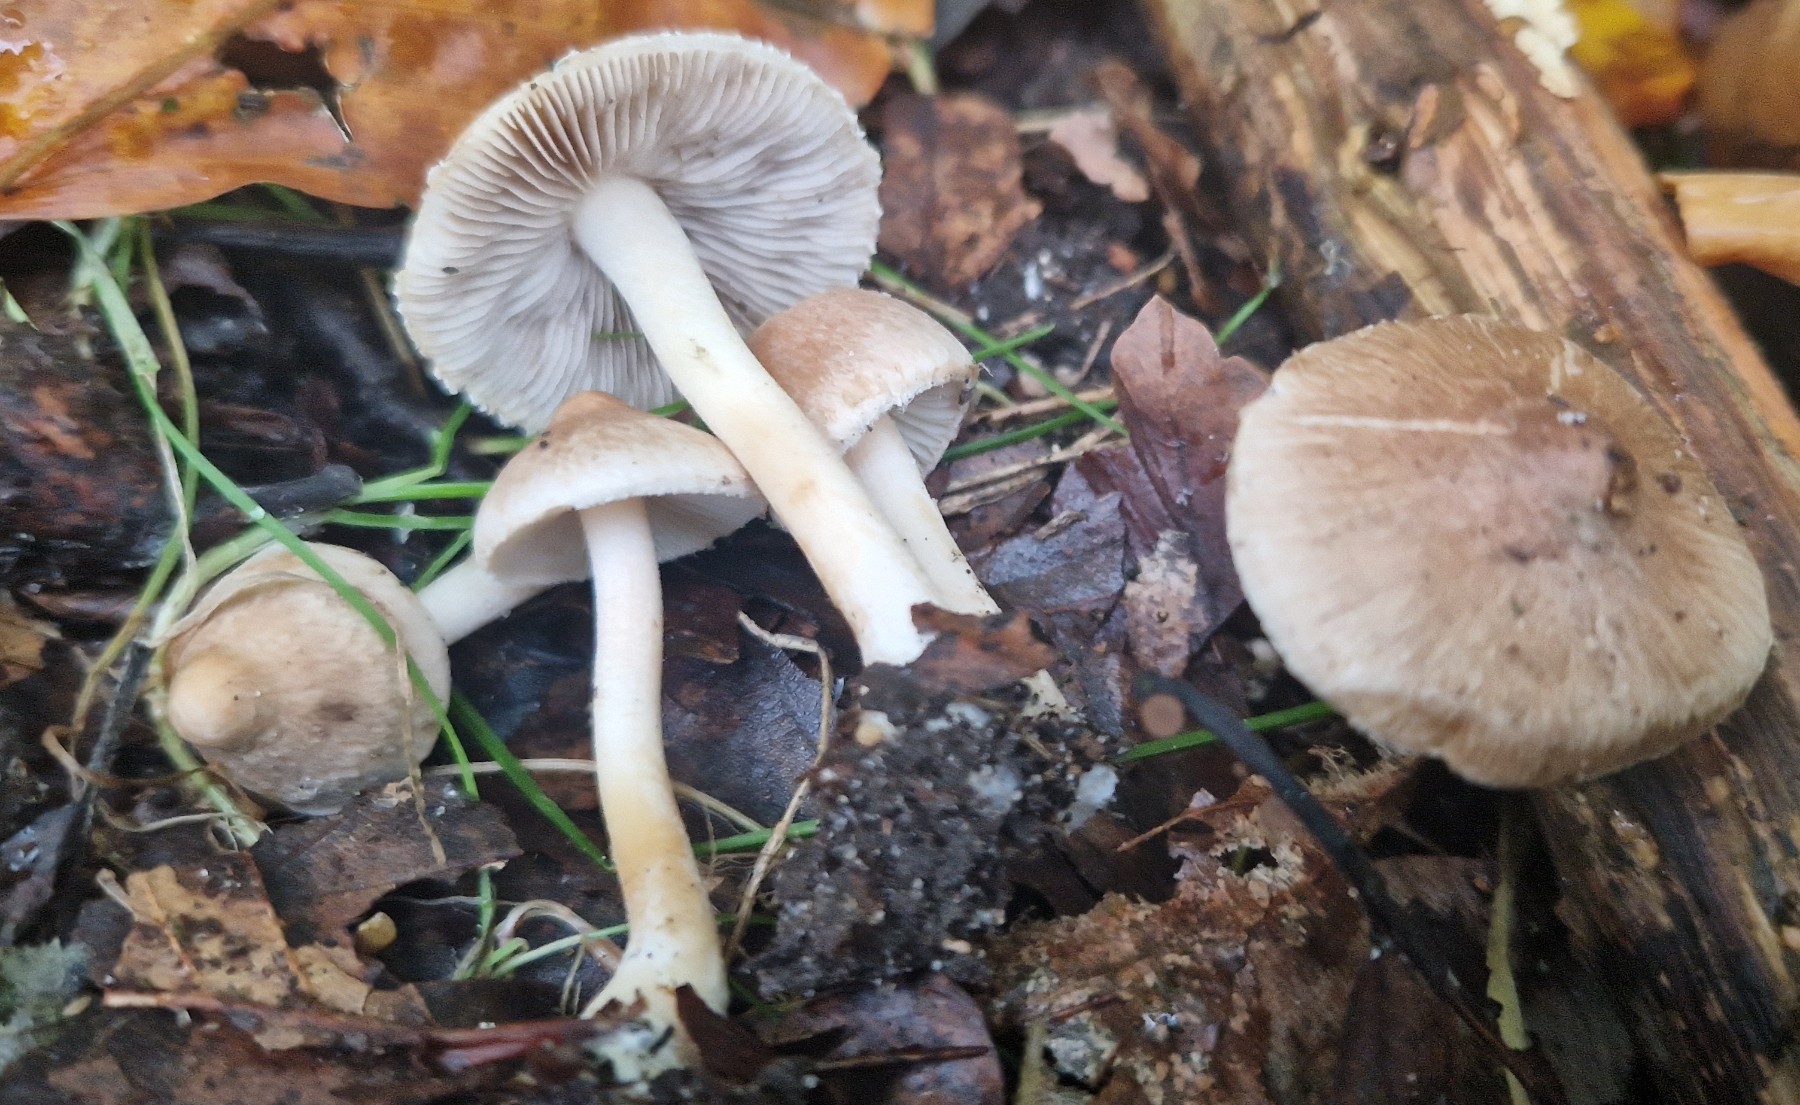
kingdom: Fungi
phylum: Basidiomycota
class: Agaricomycetes
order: Agaricales
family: Inocybaceae
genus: Inocybe
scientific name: Inocybe sindonia
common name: bleg trævlhat
